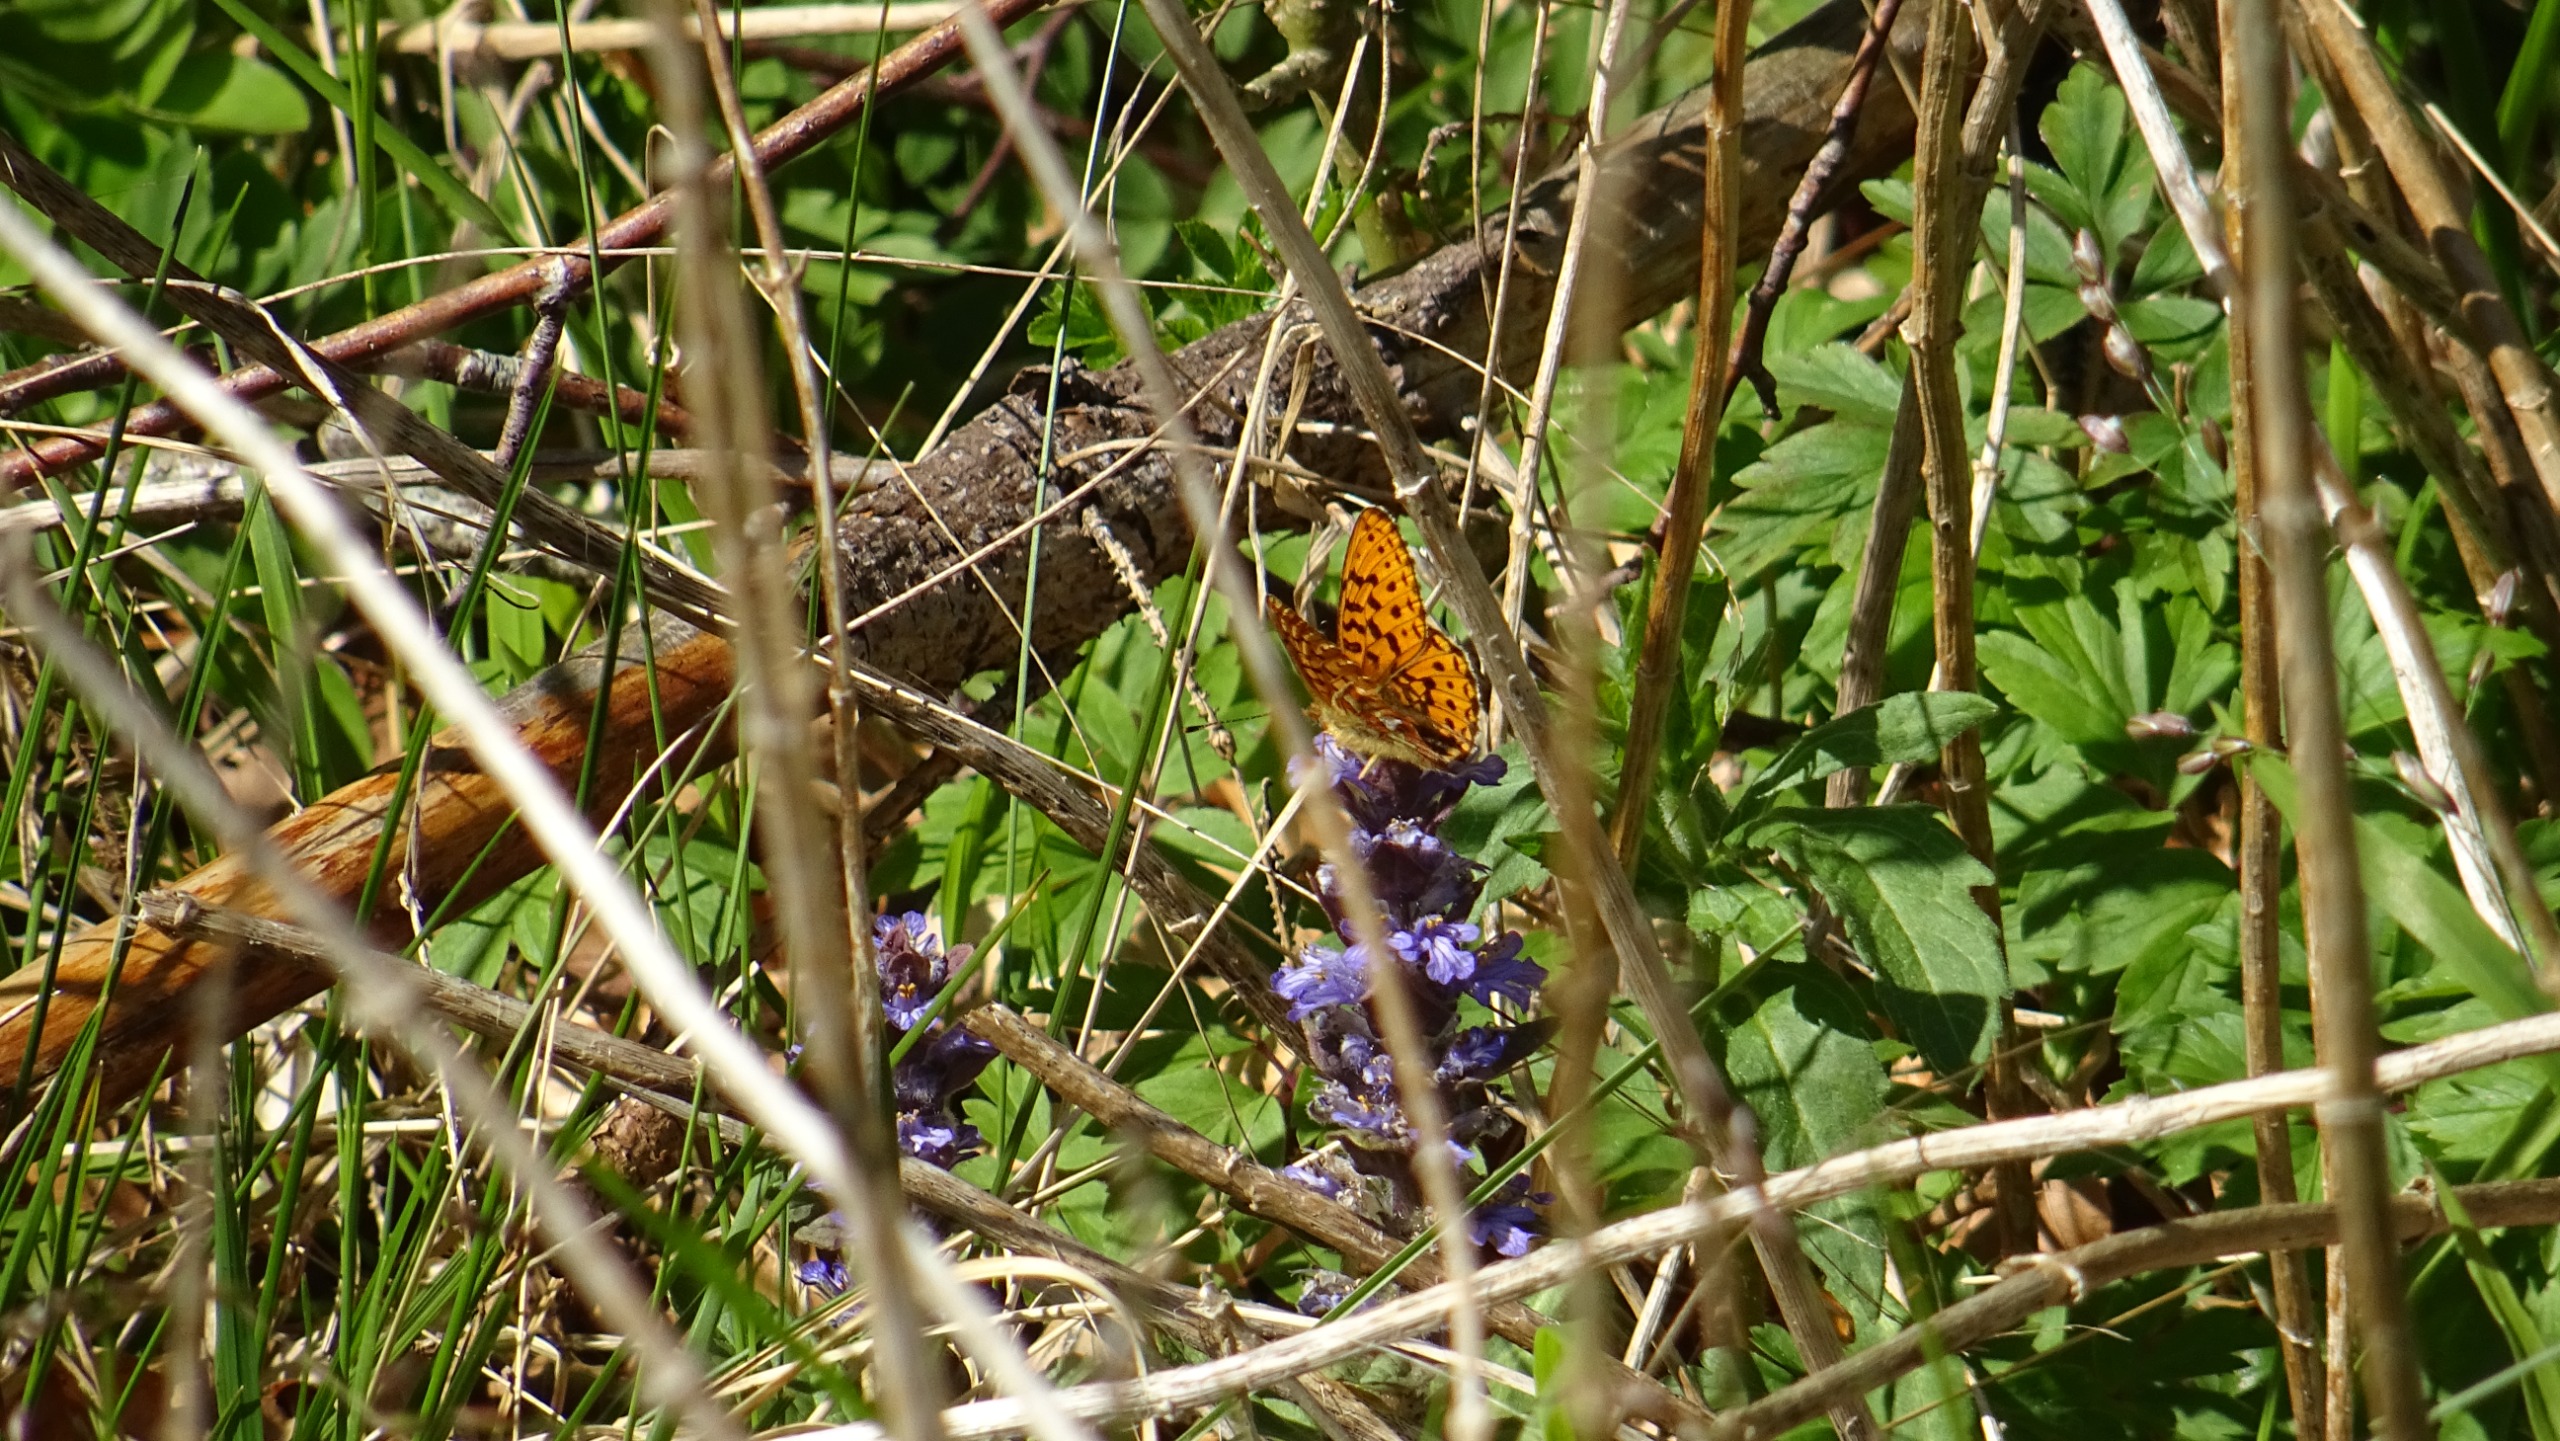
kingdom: Animalia
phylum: Arthropoda
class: Insecta
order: Lepidoptera
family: Nymphalidae
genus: Clossiana
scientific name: Clossiana euphrosyne
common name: Rødlig perlemorsommerfugl
